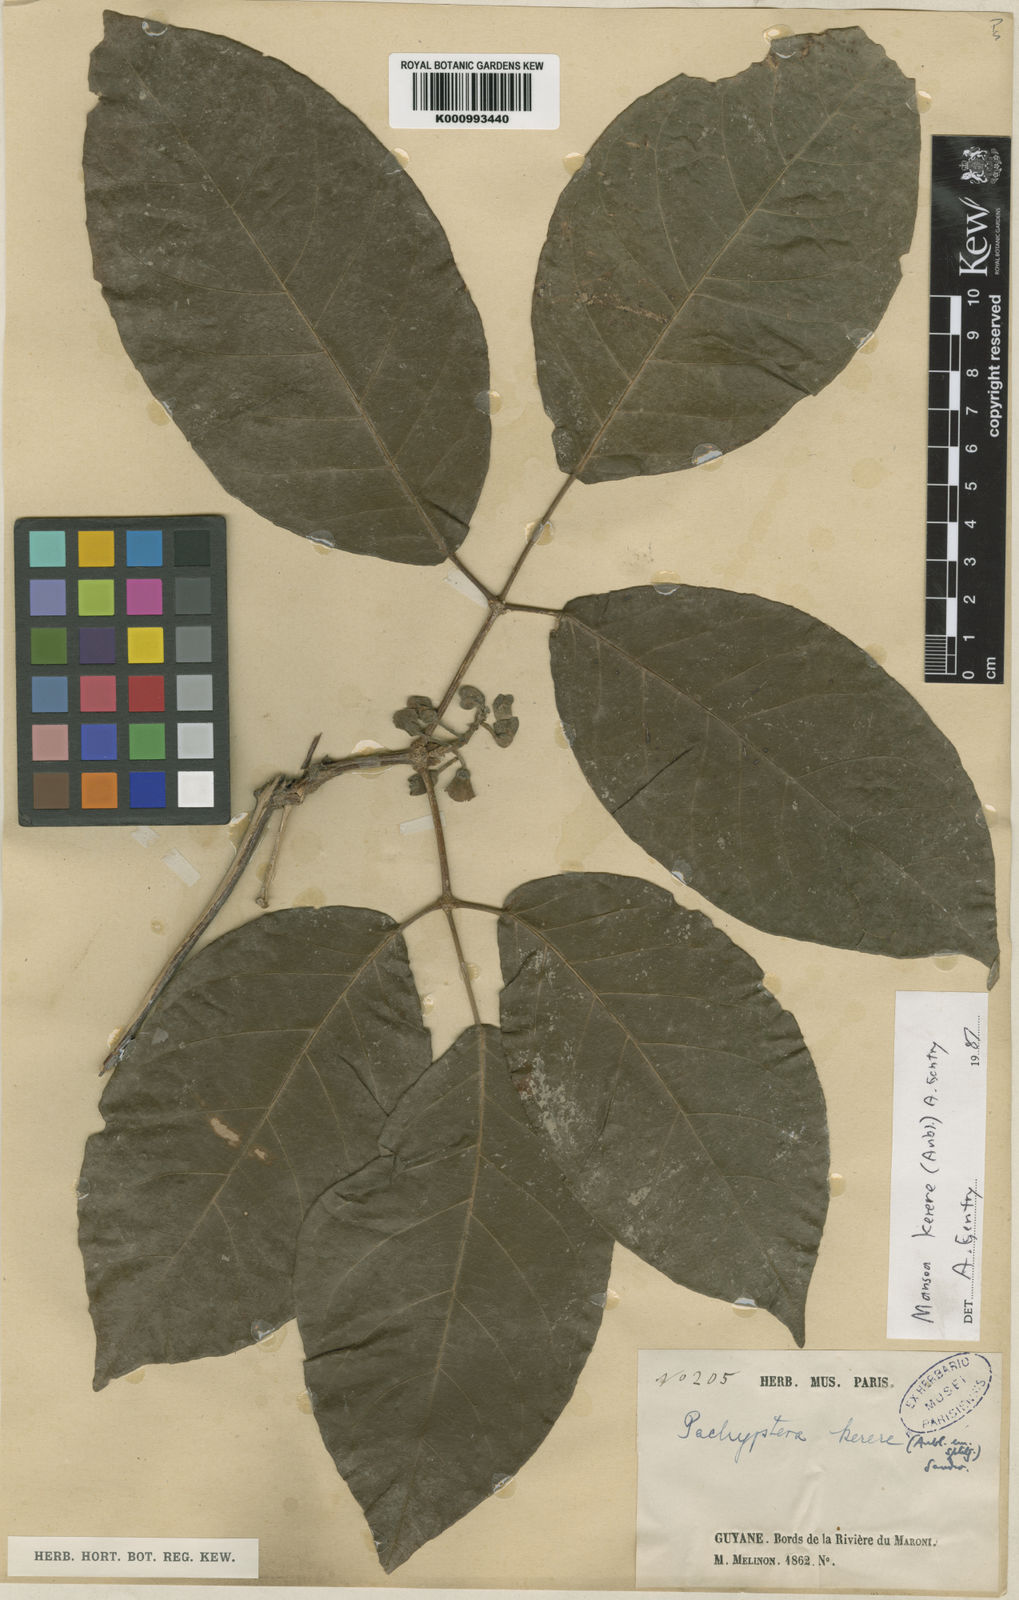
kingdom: Plantae
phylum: Tracheophyta
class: Magnoliopsida
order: Lamiales
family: Bignoniaceae
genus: Pachyptera
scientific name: Pachyptera kerere
